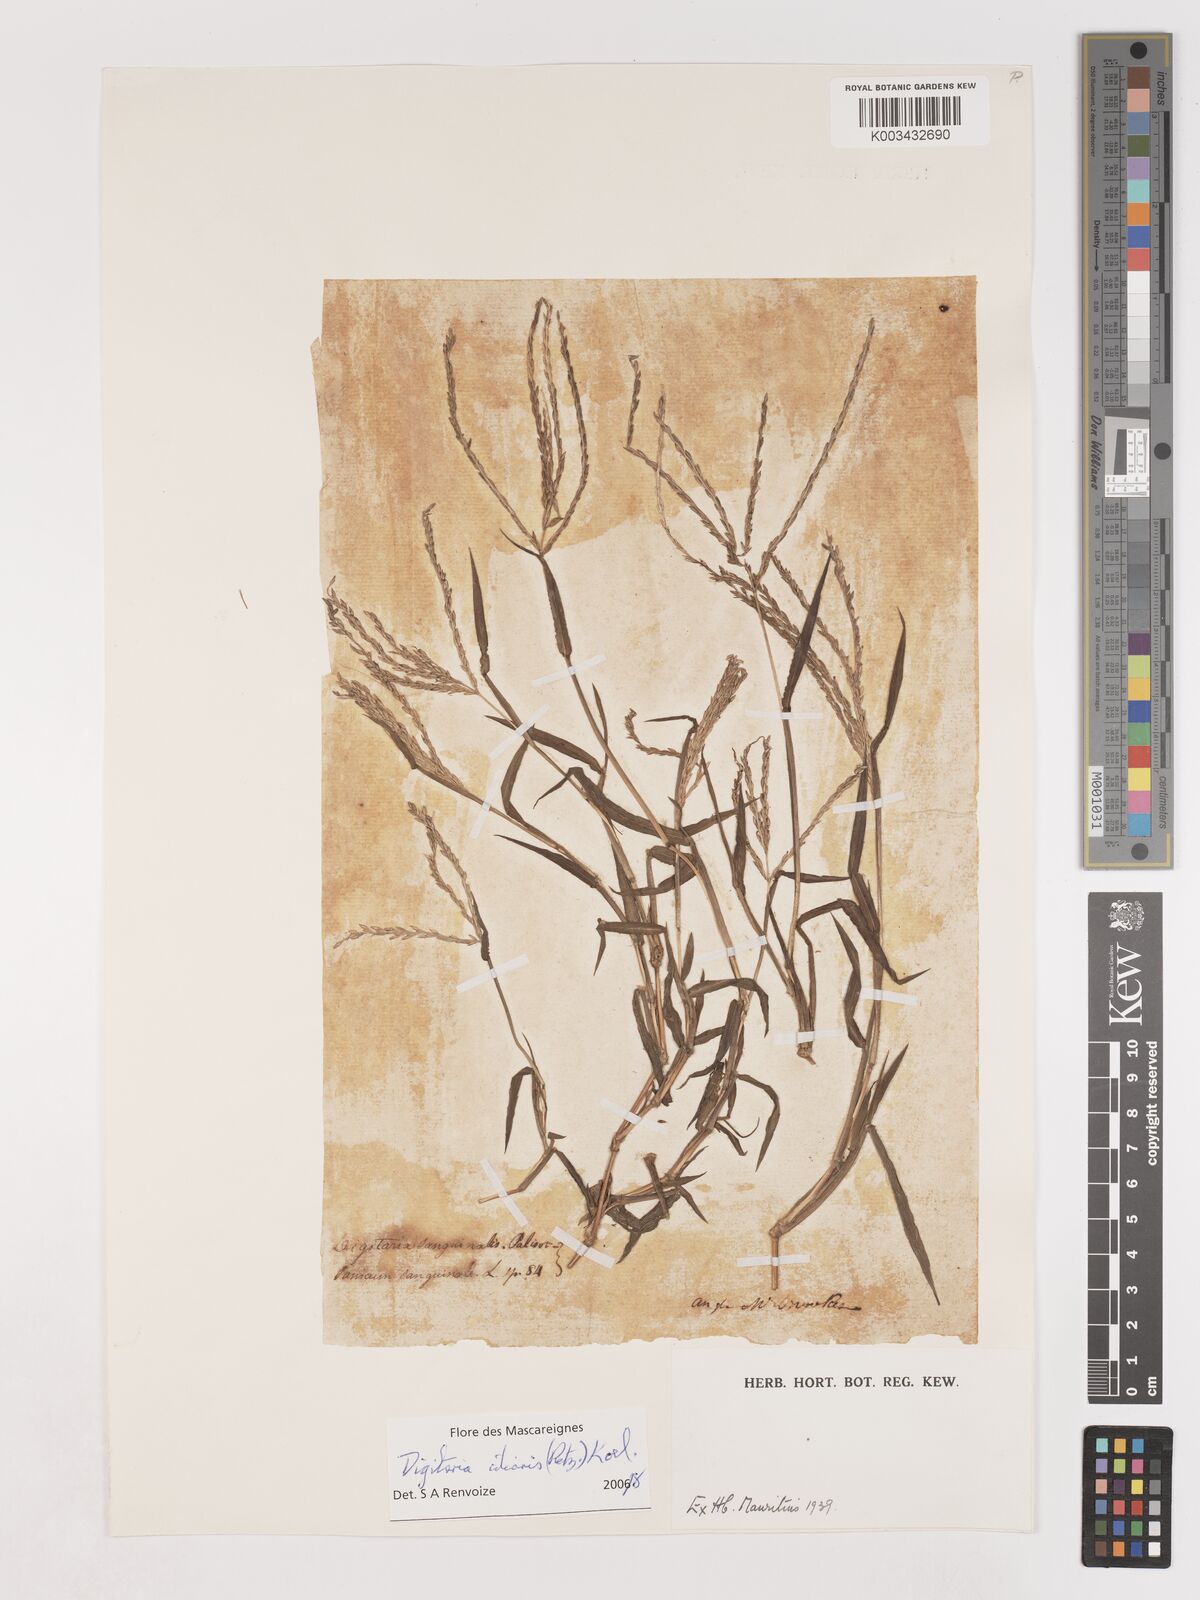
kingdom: Plantae
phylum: Tracheophyta
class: Liliopsida
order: Poales
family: Poaceae
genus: Digitaria
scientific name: Digitaria ciliaris
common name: Tropical finger-grass
